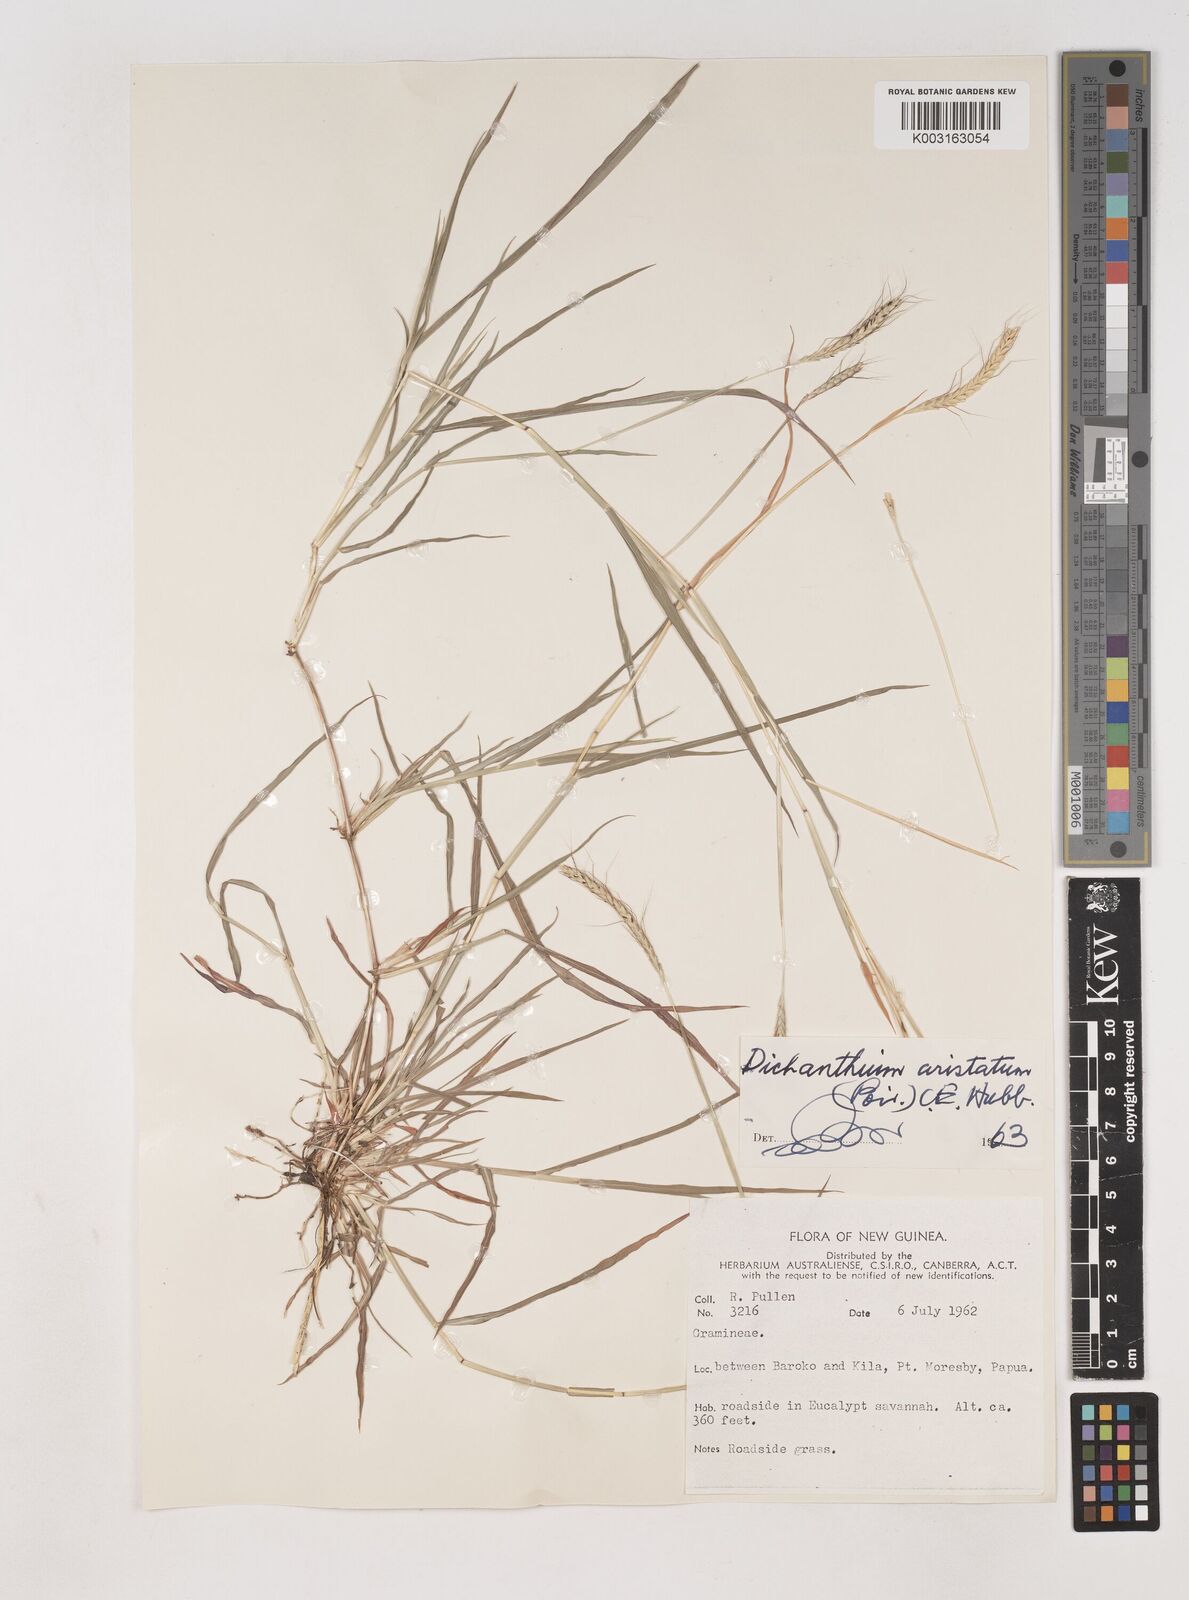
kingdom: Plantae
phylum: Tracheophyta
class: Liliopsida
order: Poales
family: Poaceae
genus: Dichanthium
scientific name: Dichanthium aristatum
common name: Angleton bluestem
